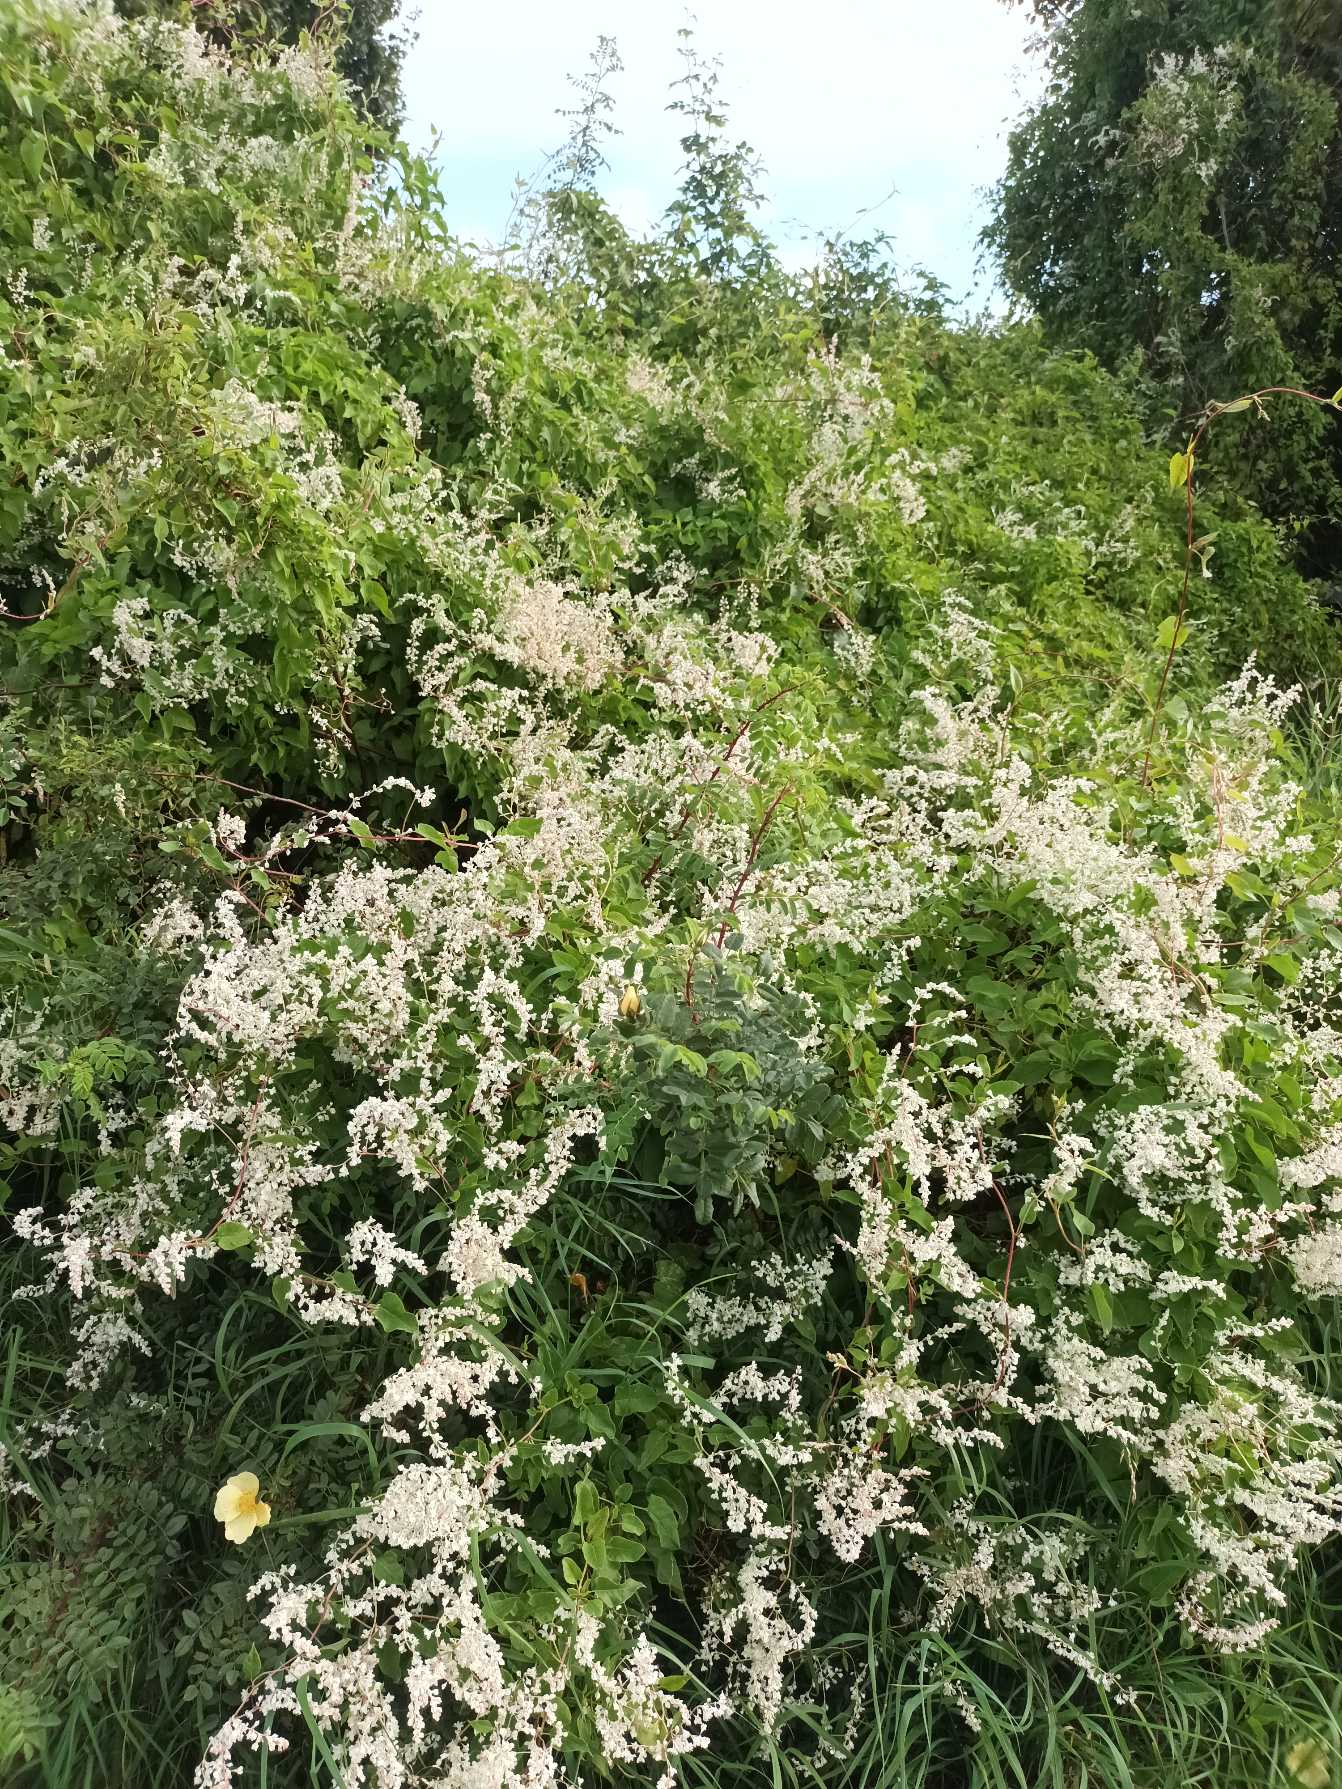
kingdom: Plantae
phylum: Tracheophyta
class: Magnoliopsida
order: Caryophyllales
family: Polygonaceae
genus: Fallopia
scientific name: Fallopia baldschuanica
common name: Sølvregn
